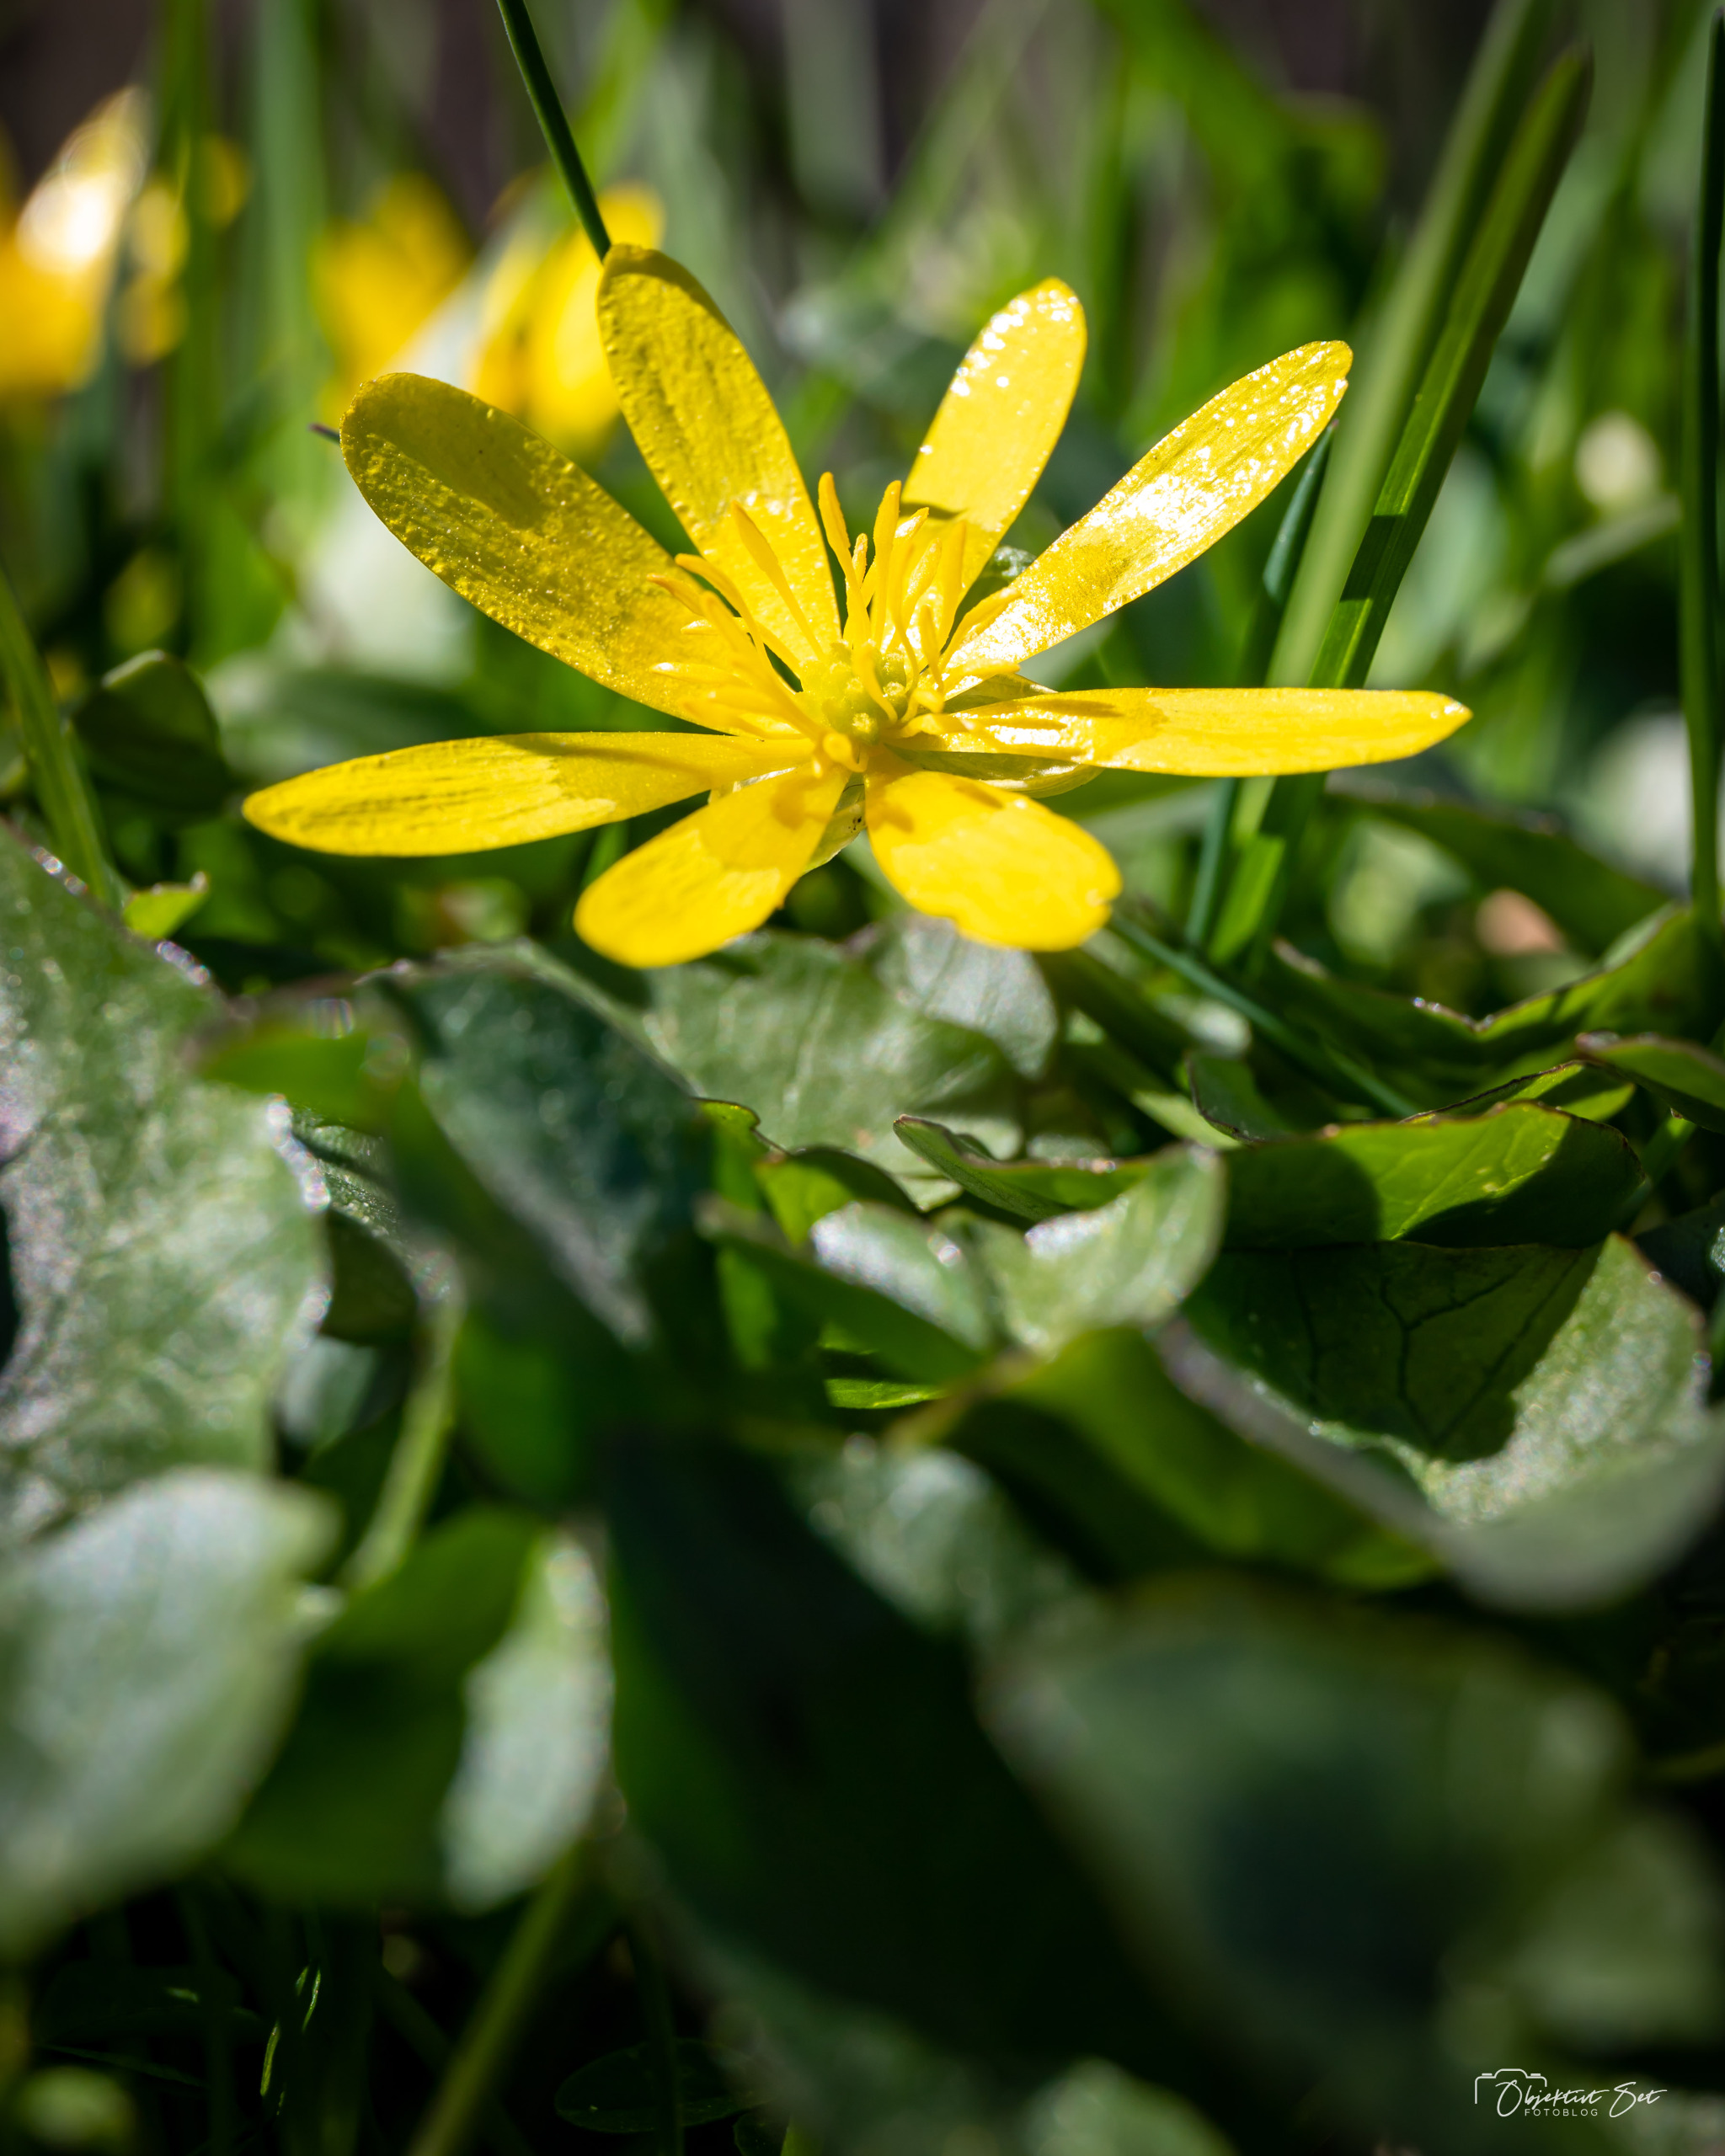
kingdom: Plantae
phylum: Tracheophyta
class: Magnoliopsida
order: Ranunculales
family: Ranunculaceae
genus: Ficaria
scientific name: Ficaria verna
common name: Vorterod
